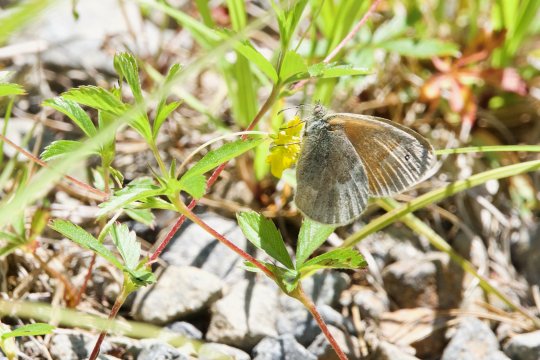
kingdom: Animalia
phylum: Arthropoda
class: Insecta
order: Lepidoptera
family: Nymphalidae
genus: Coenonympha
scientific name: Coenonympha tullia
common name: Large Heath
